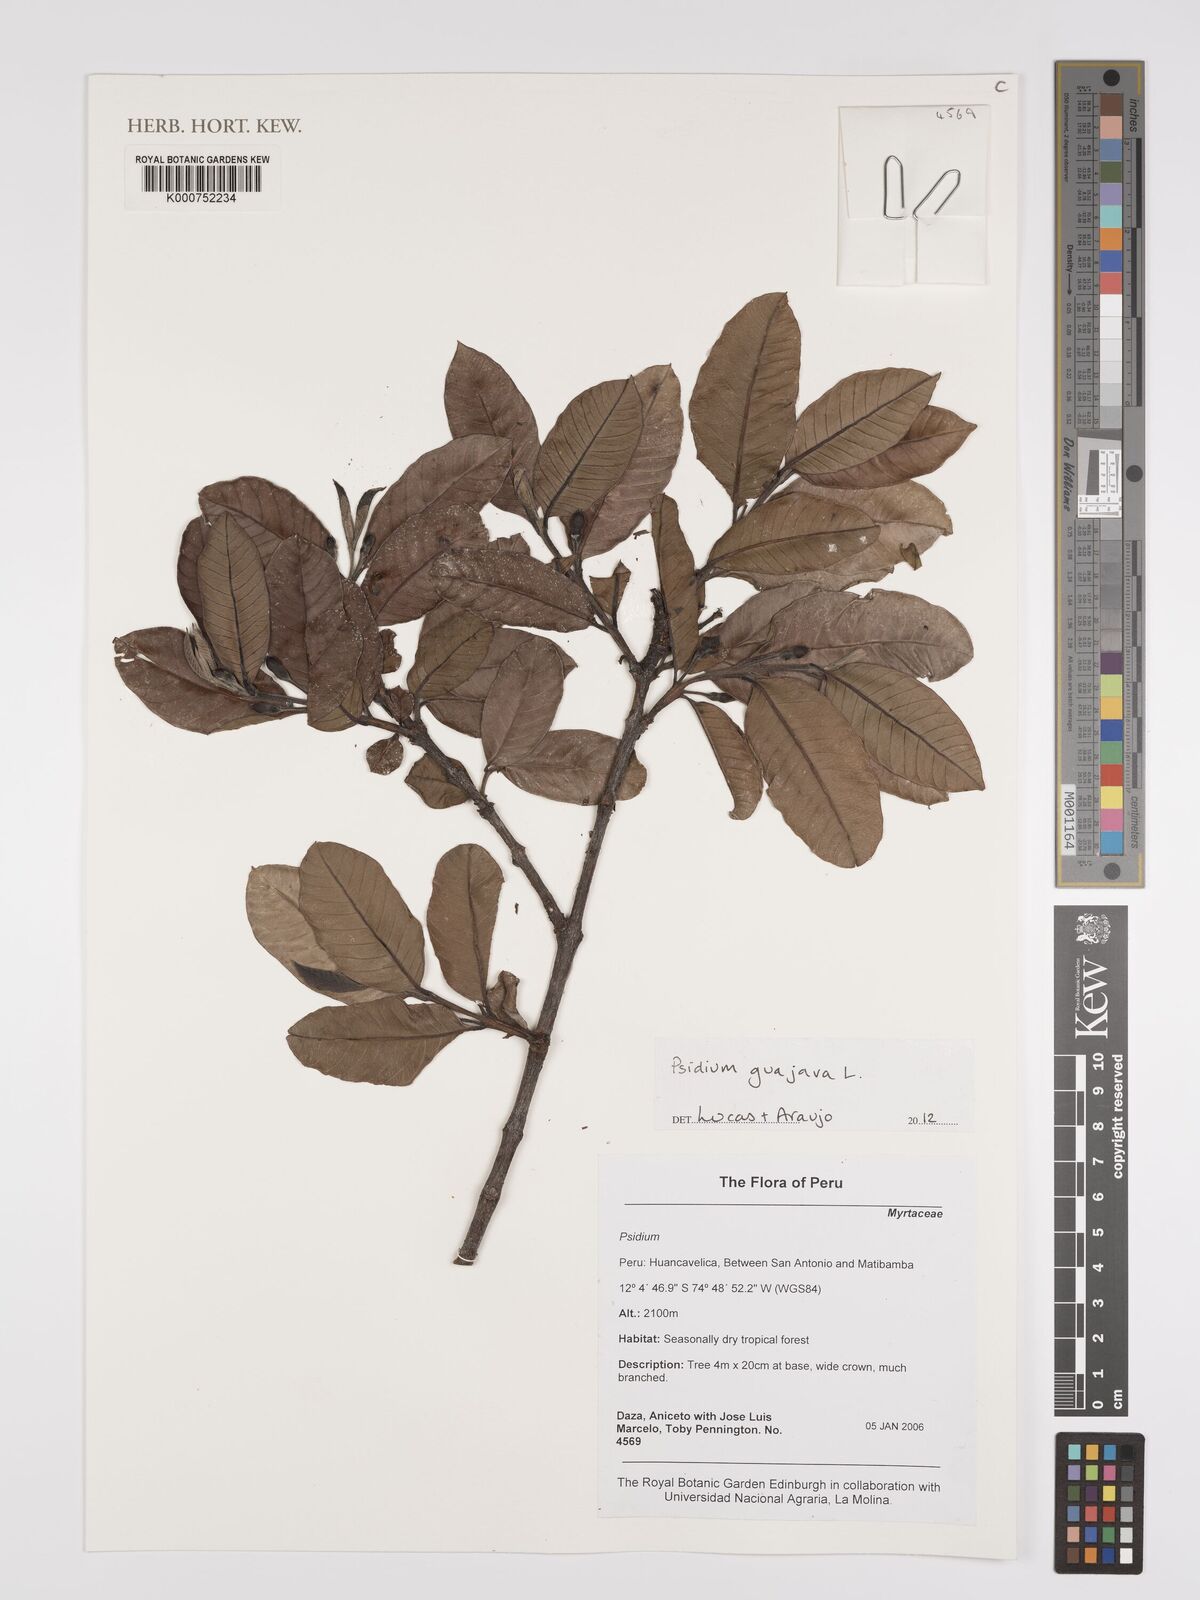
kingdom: Plantae
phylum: Tracheophyta
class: Magnoliopsida
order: Myrtales
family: Myrtaceae
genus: Psidium
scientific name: Psidium guajava
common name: Guava
